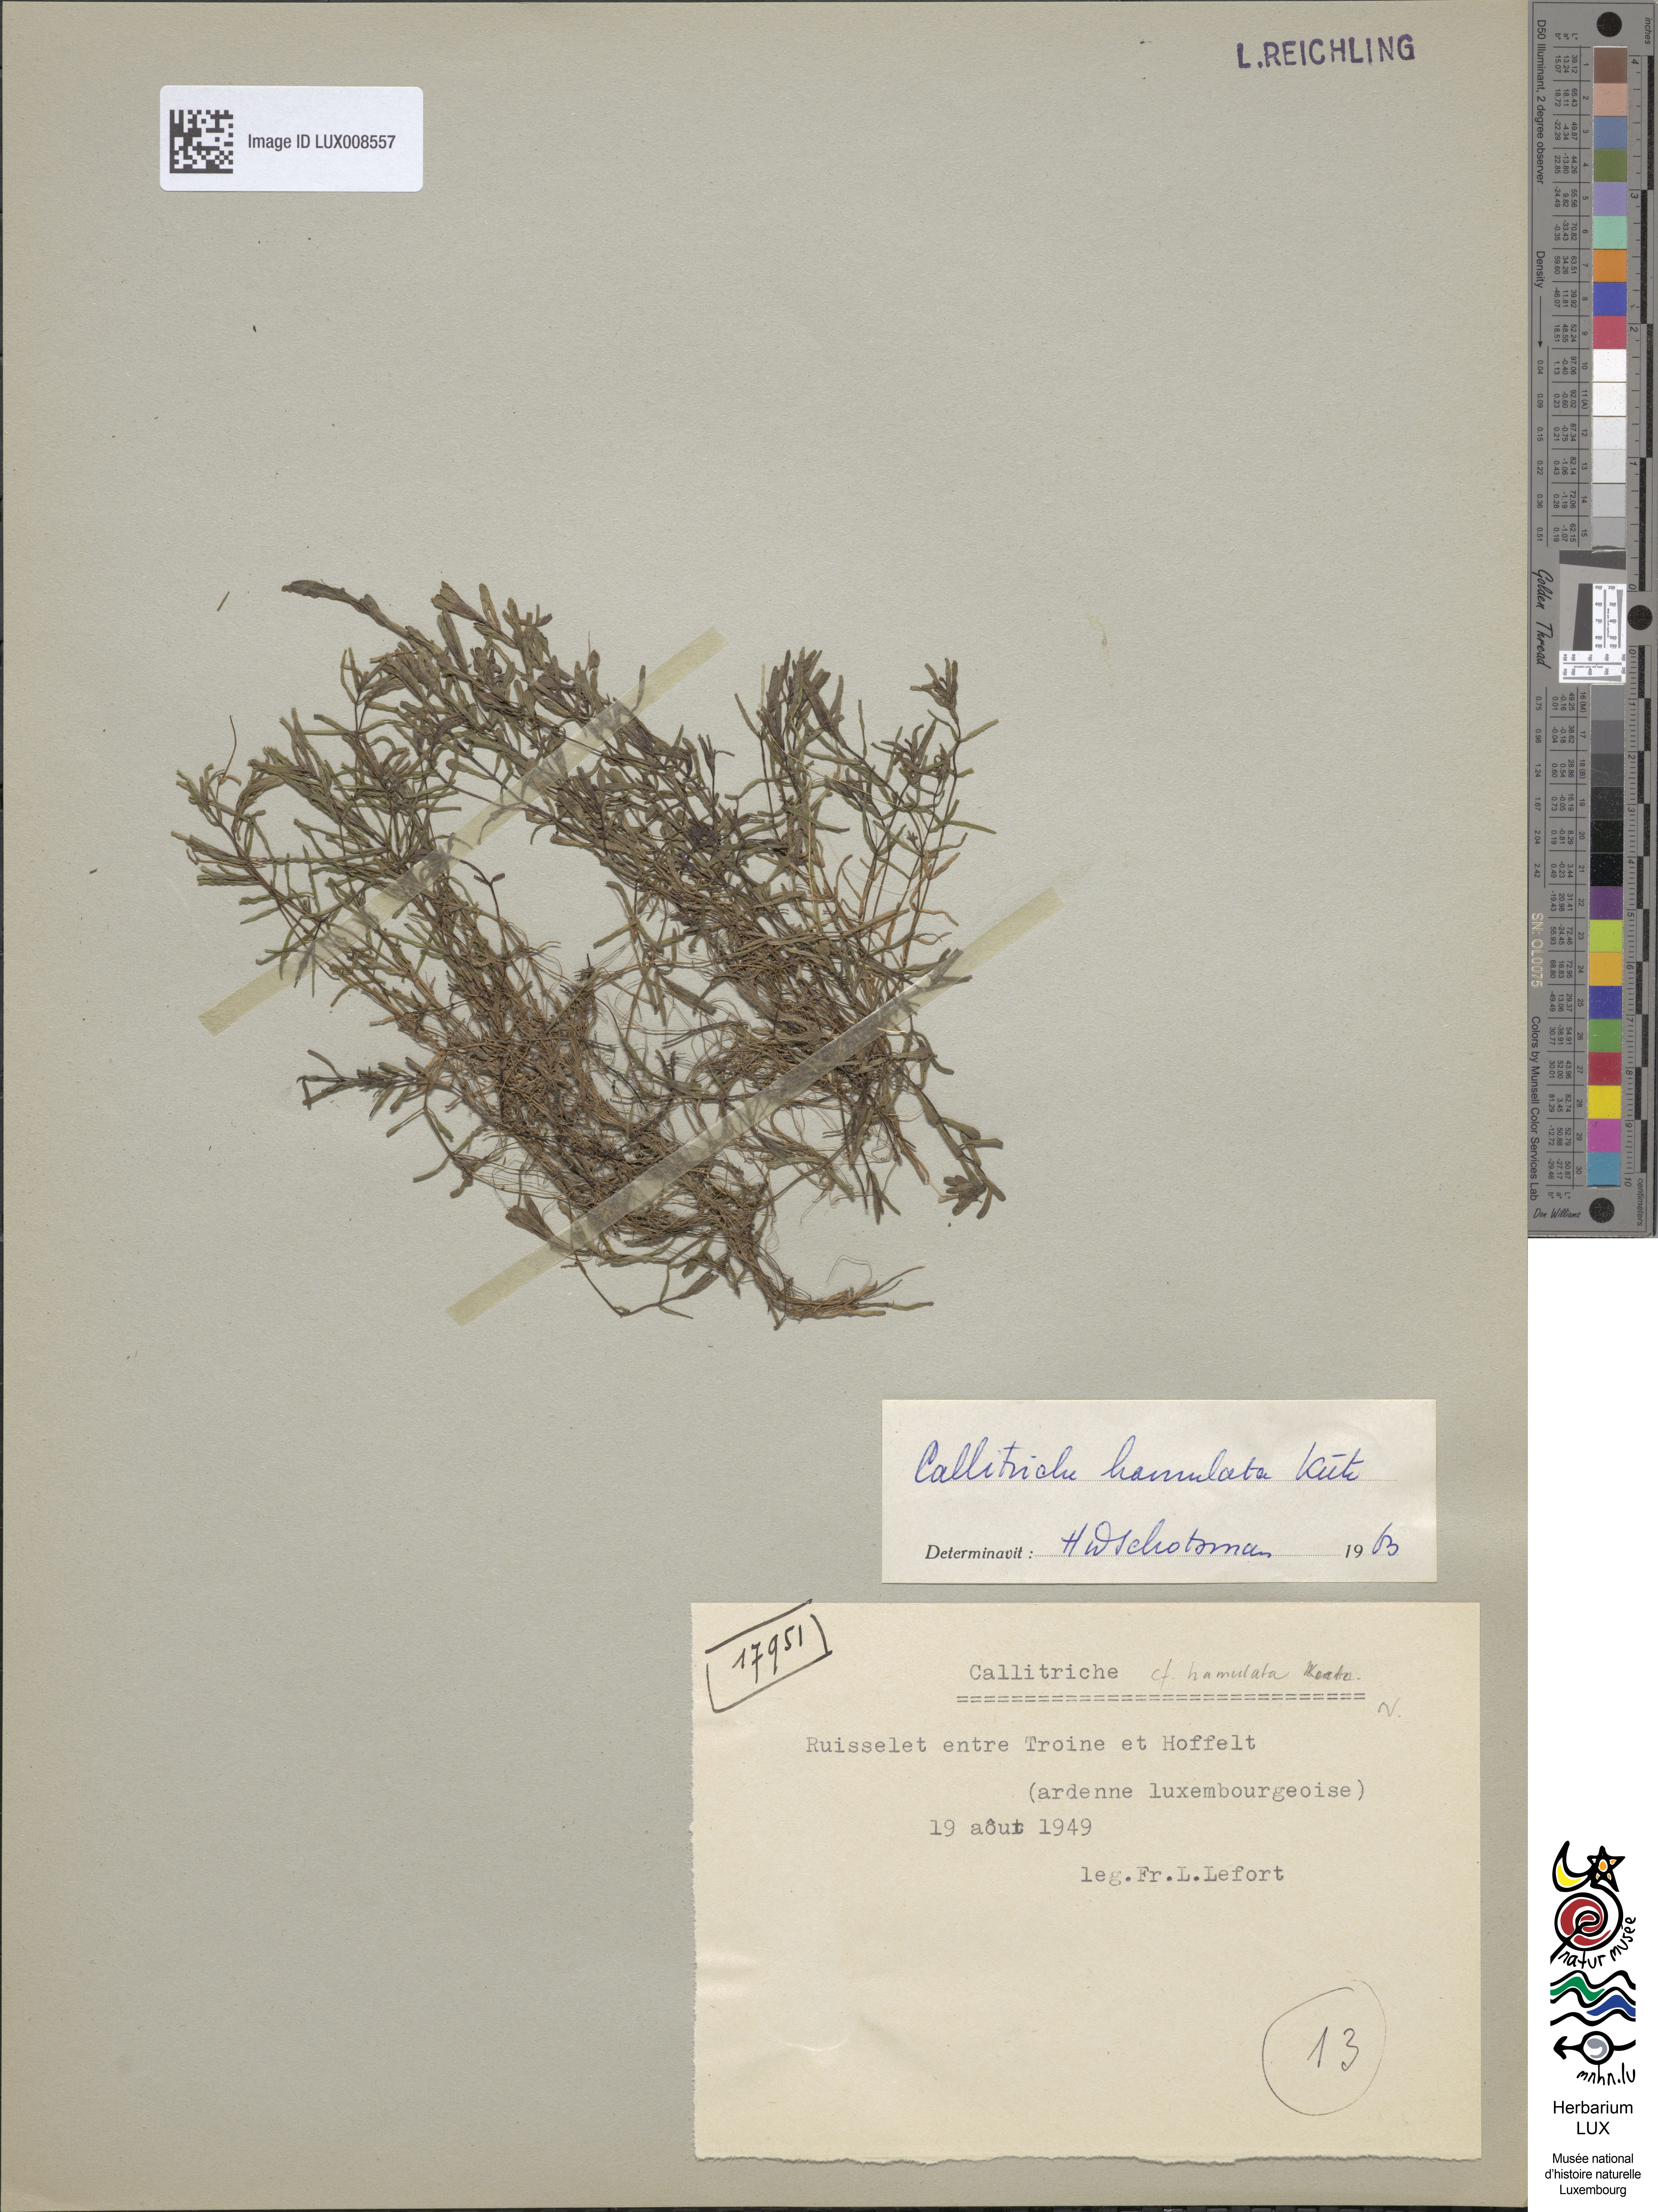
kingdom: Plantae
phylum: Tracheophyta
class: Magnoliopsida
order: Lamiales
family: Plantaginaceae
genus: Callitriche
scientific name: Callitriche
